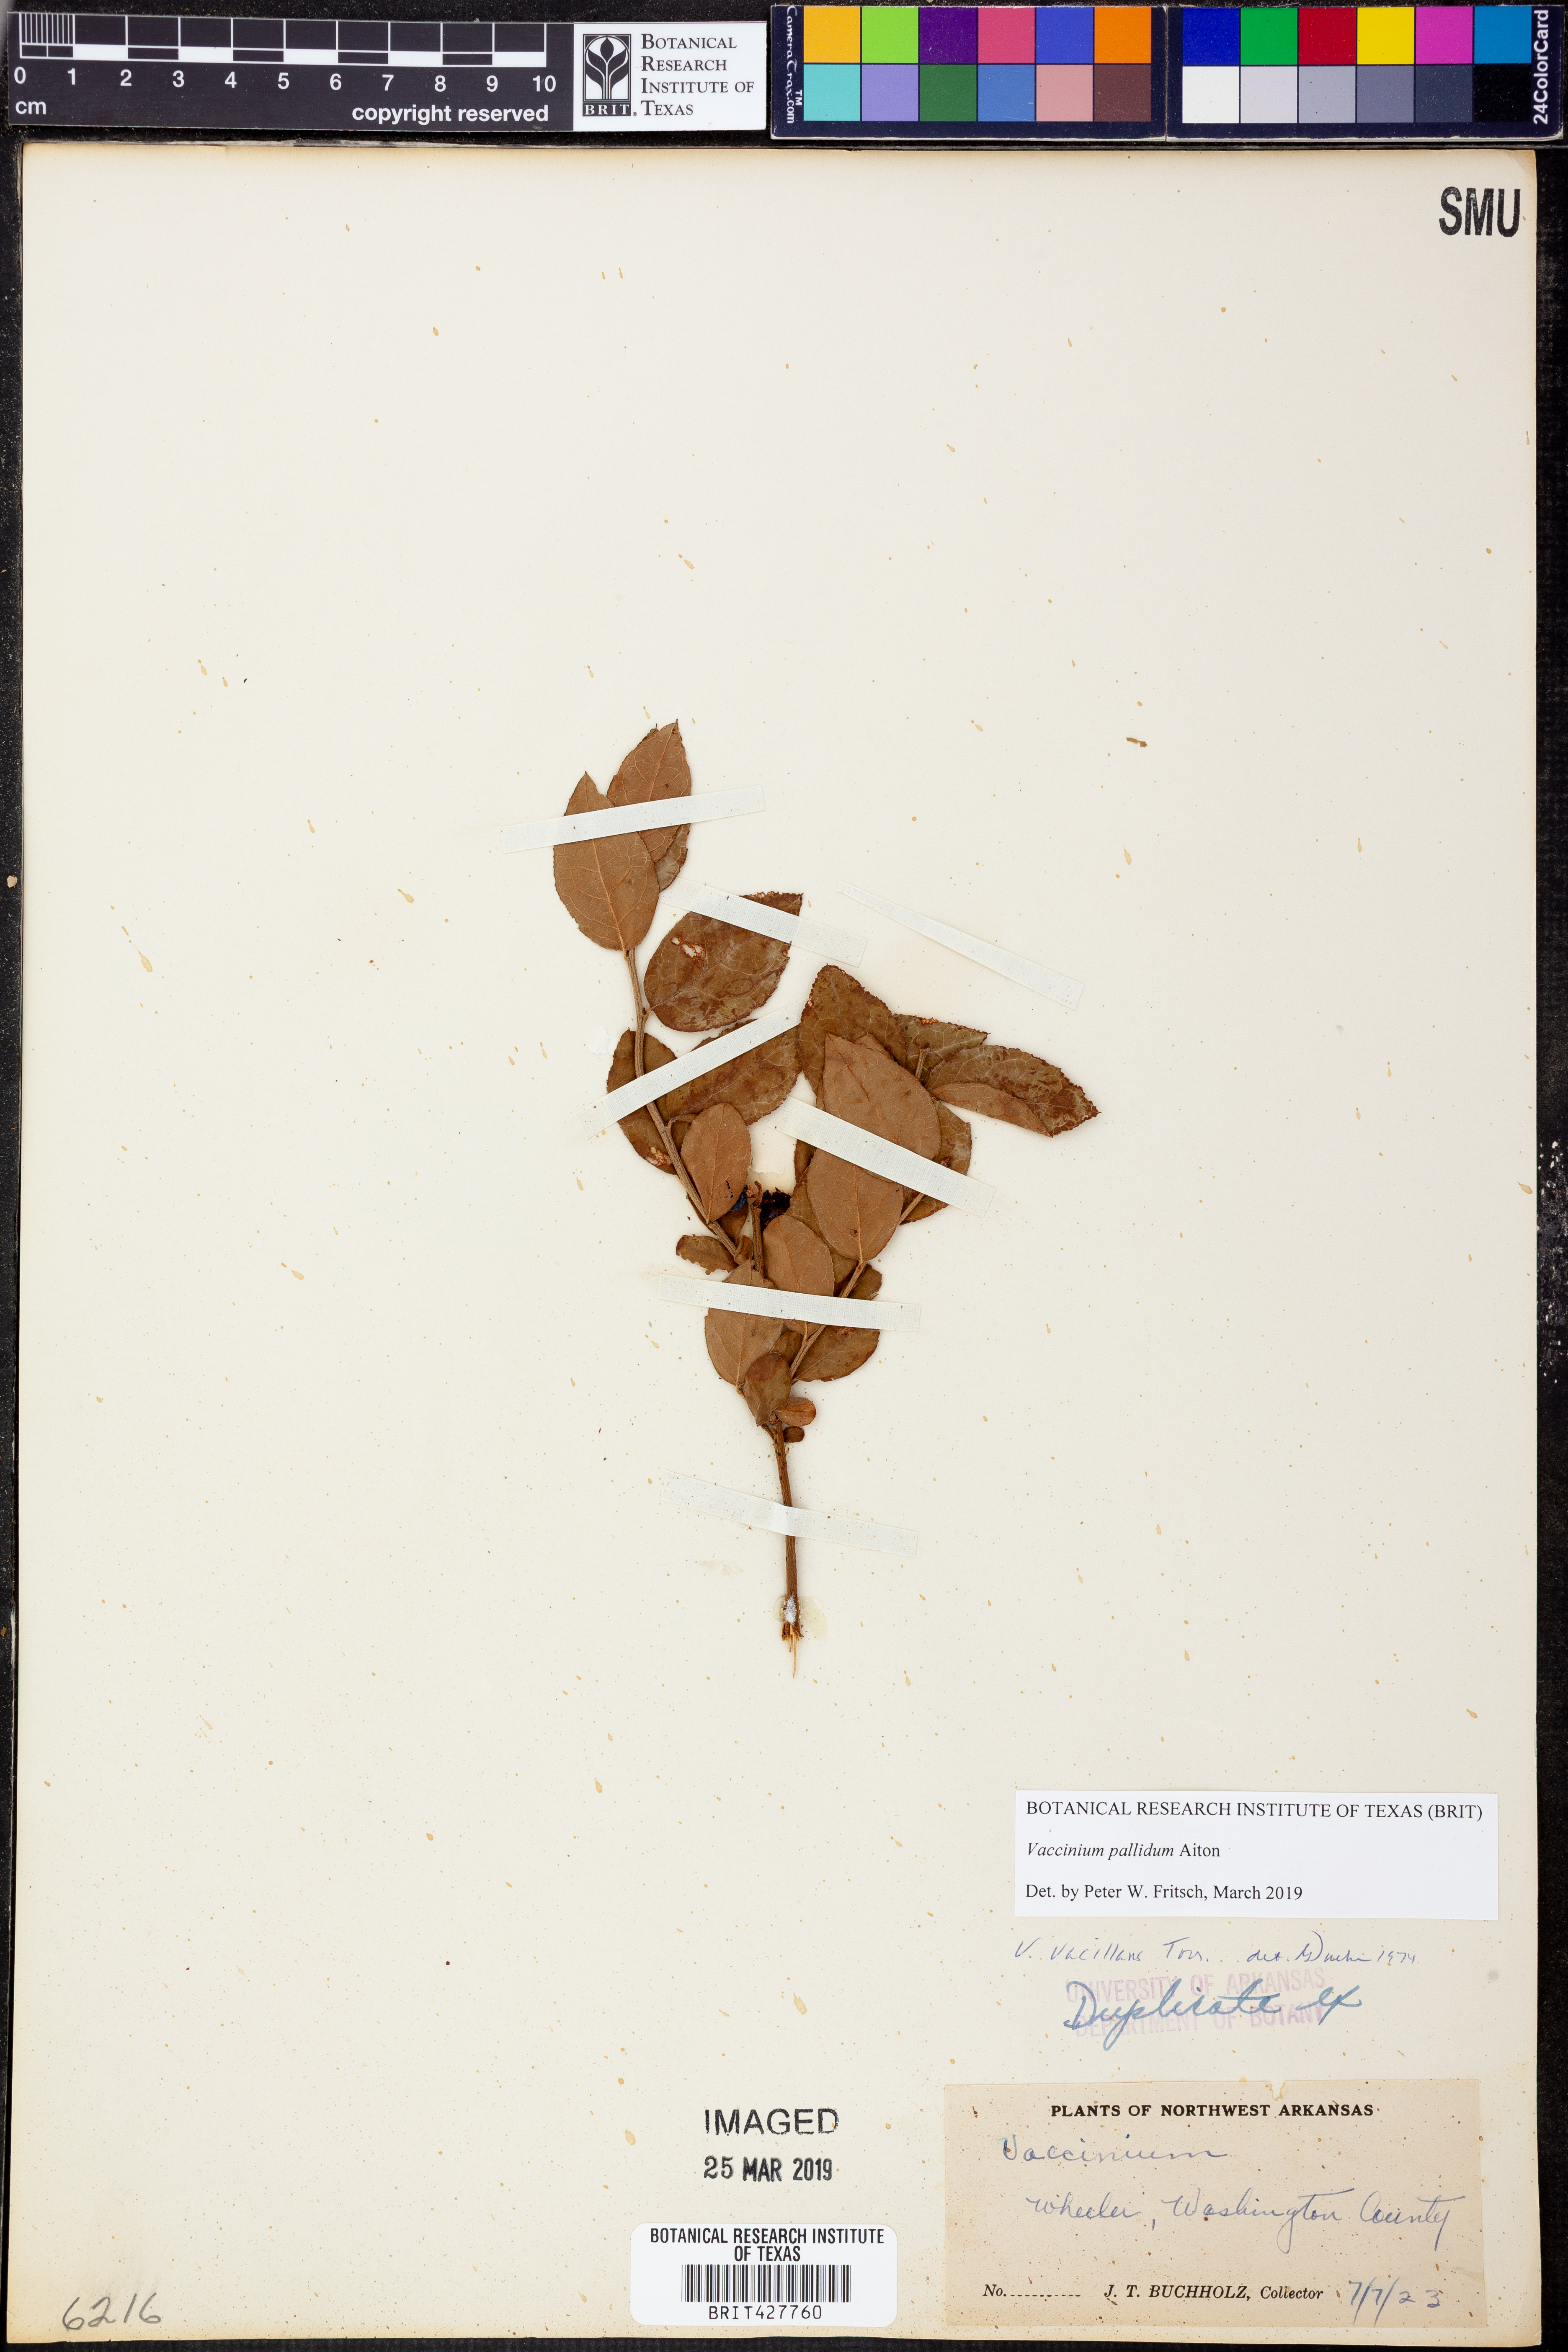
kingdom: Plantae
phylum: Tracheophyta
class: Magnoliopsida
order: Ericales
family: Ericaceae
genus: Vaccinium
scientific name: Vaccinium pallidum
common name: Blue ridge blueberry
